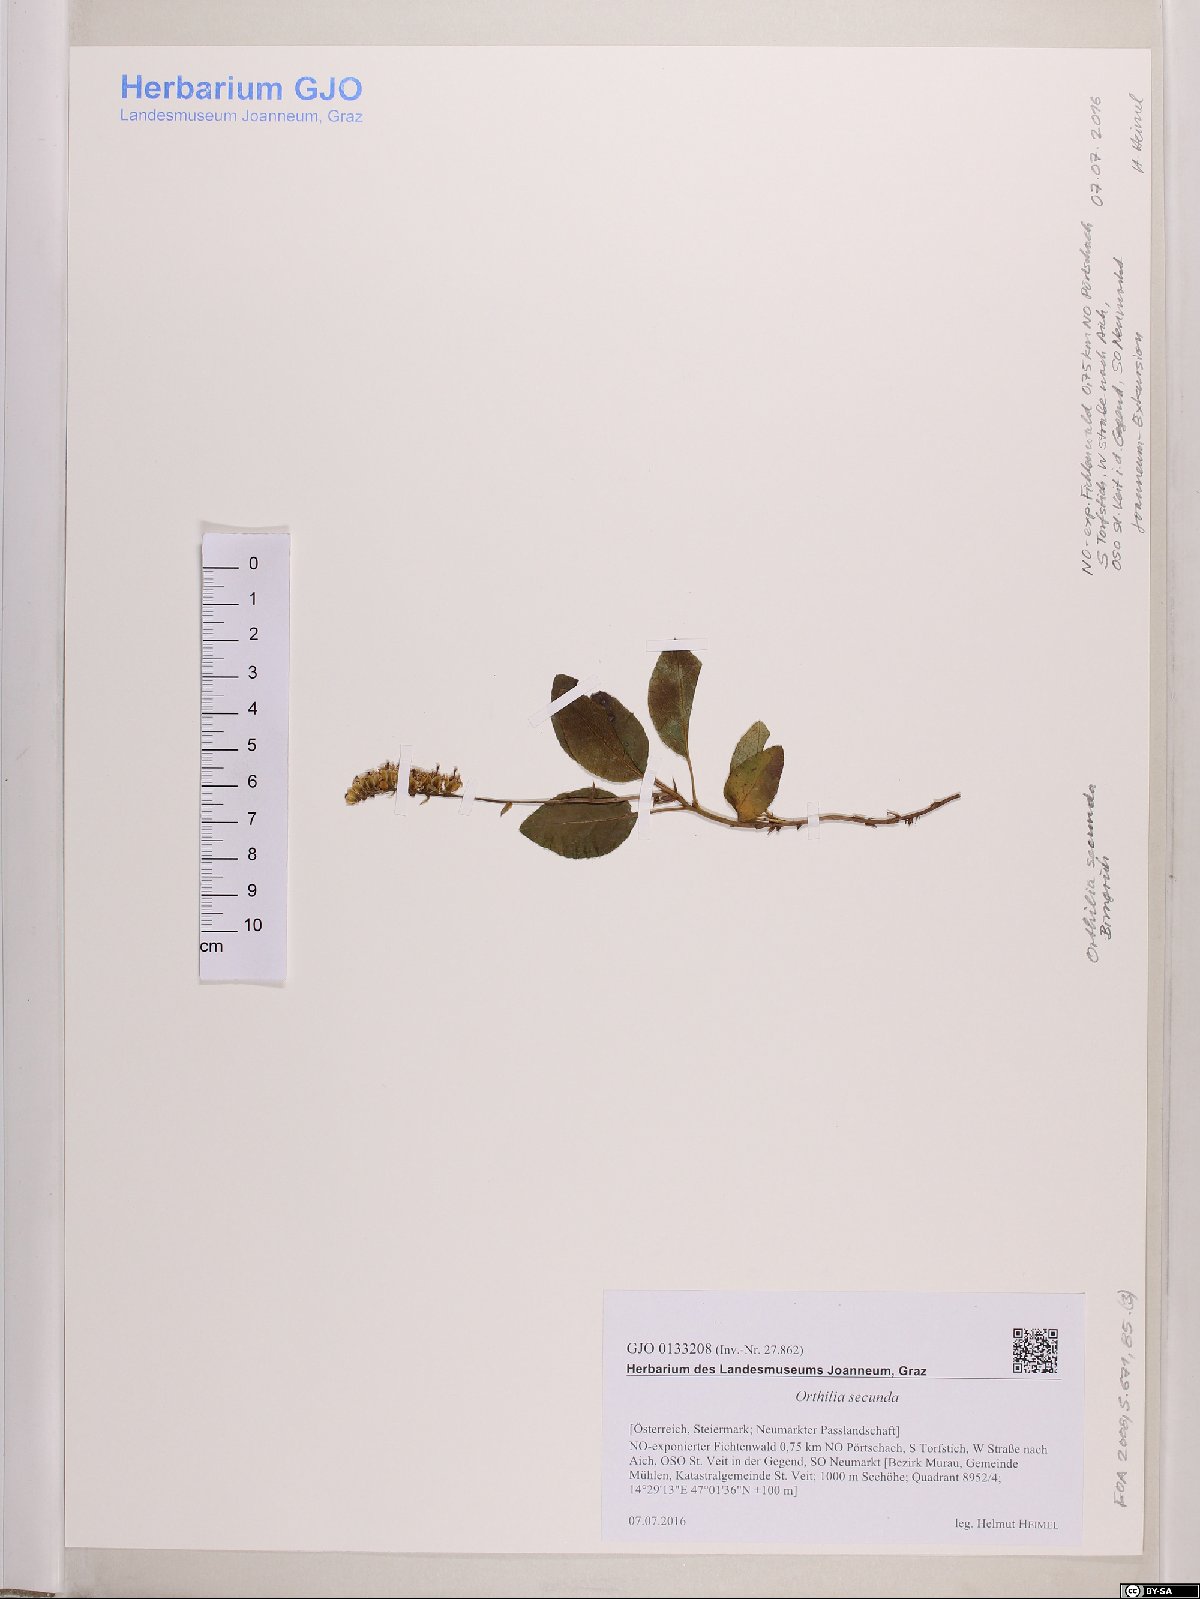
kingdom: Plantae
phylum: Tracheophyta
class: Magnoliopsida
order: Ericales
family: Ericaceae
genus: Orthilia
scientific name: Orthilia secunda
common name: One-sided orthilia
